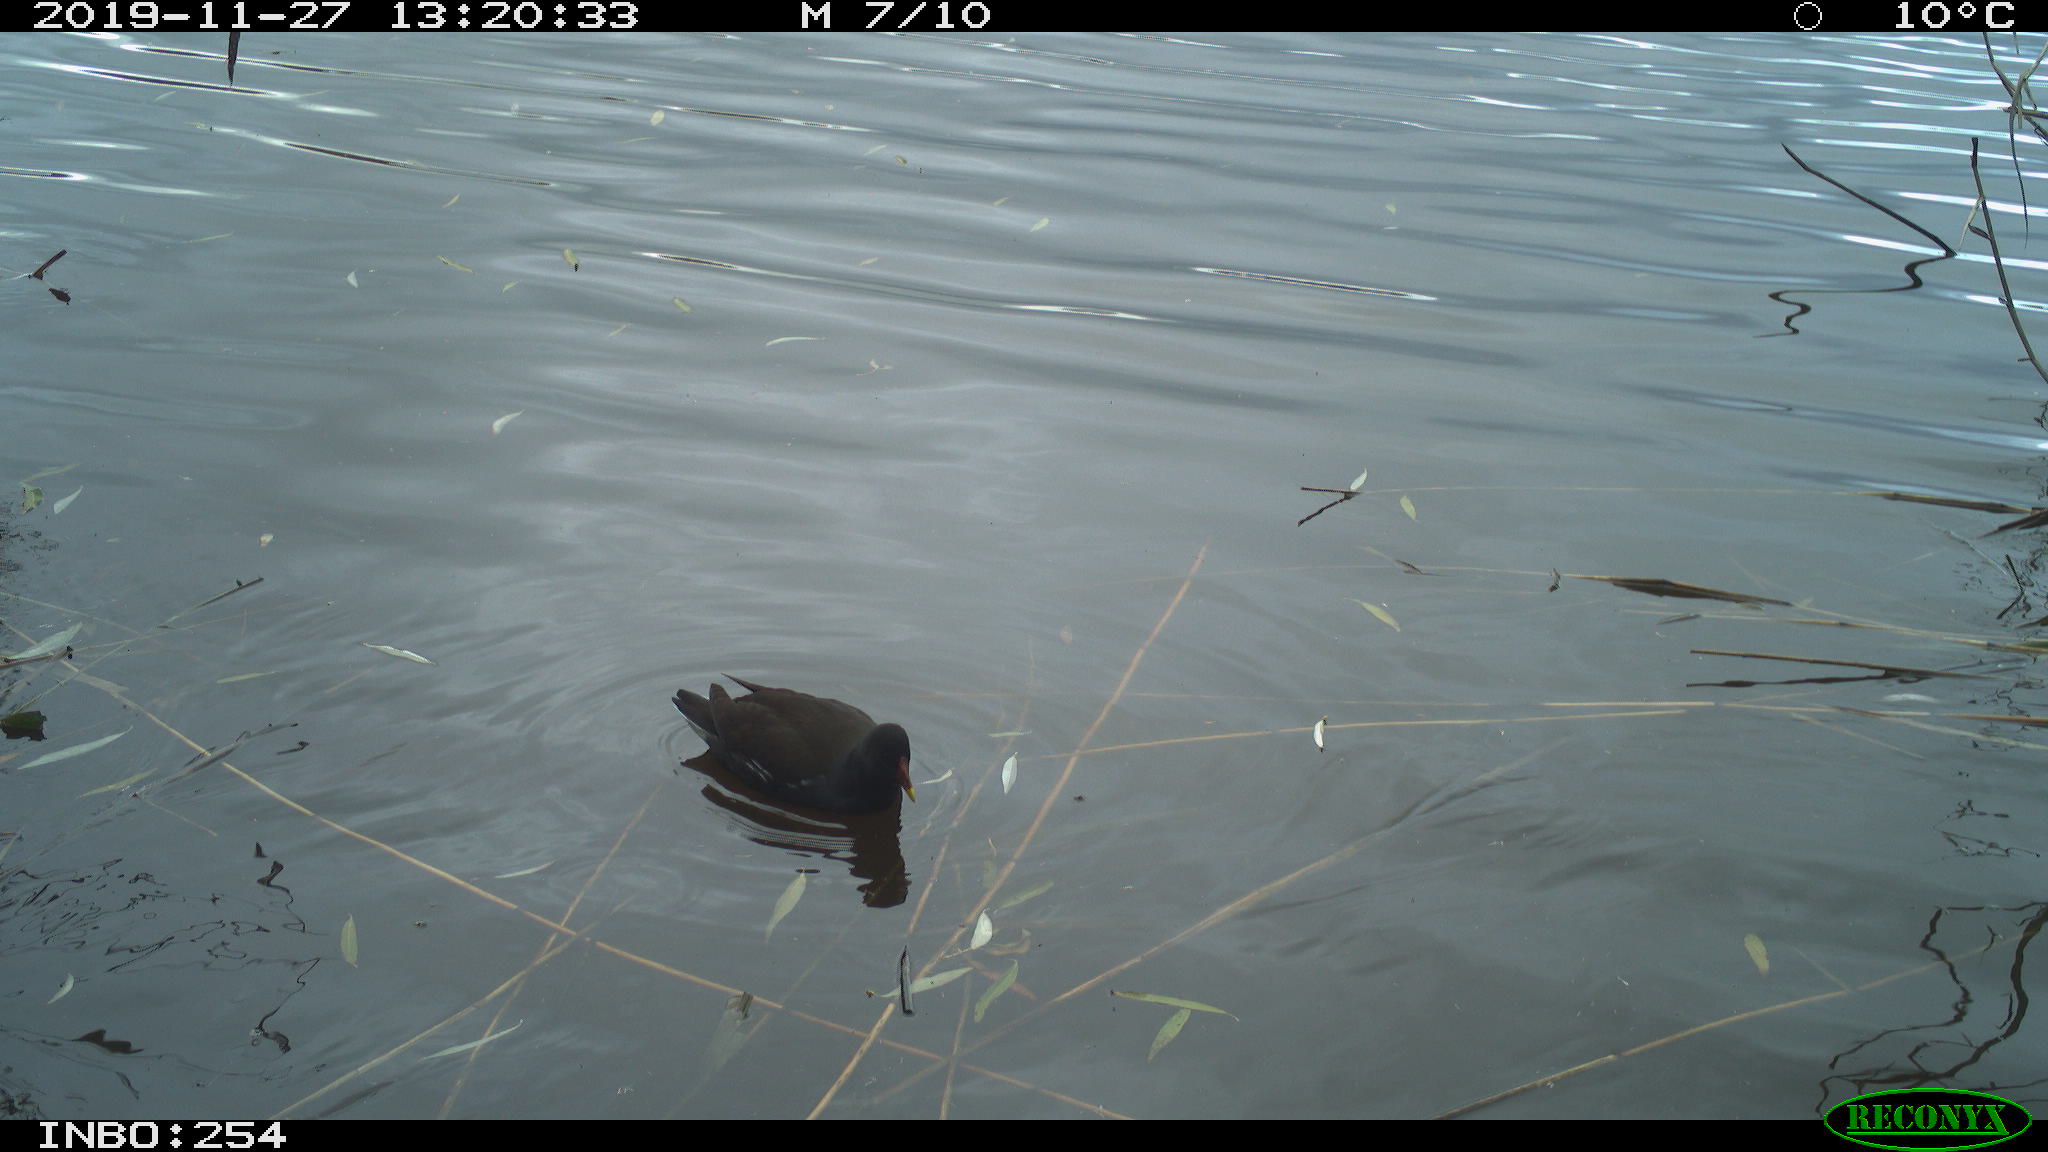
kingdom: Animalia
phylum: Chordata
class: Aves
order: Gruiformes
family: Rallidae
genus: Gallinula
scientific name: Gallinula chloropus
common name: Common moorhen
